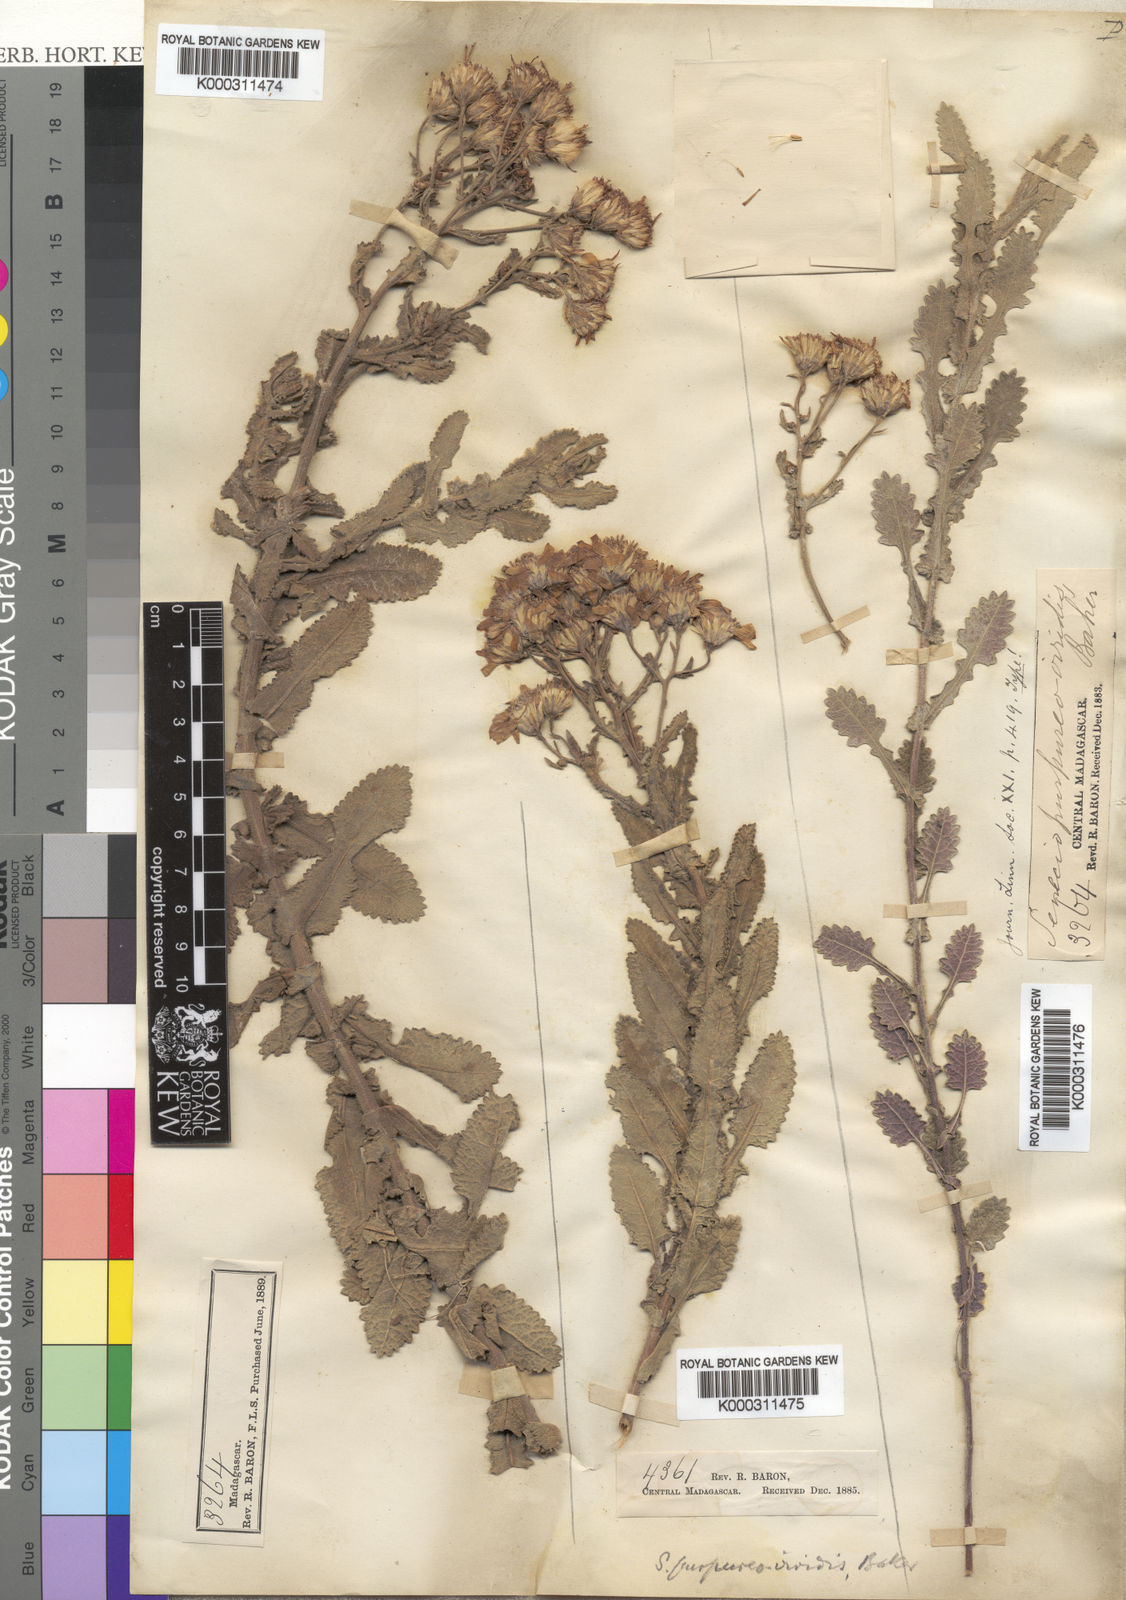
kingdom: Plantae
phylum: Tracheophyta
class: Magnoliopsida
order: Asterales
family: Asteraceae
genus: Senecio
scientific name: Senecio resectus
